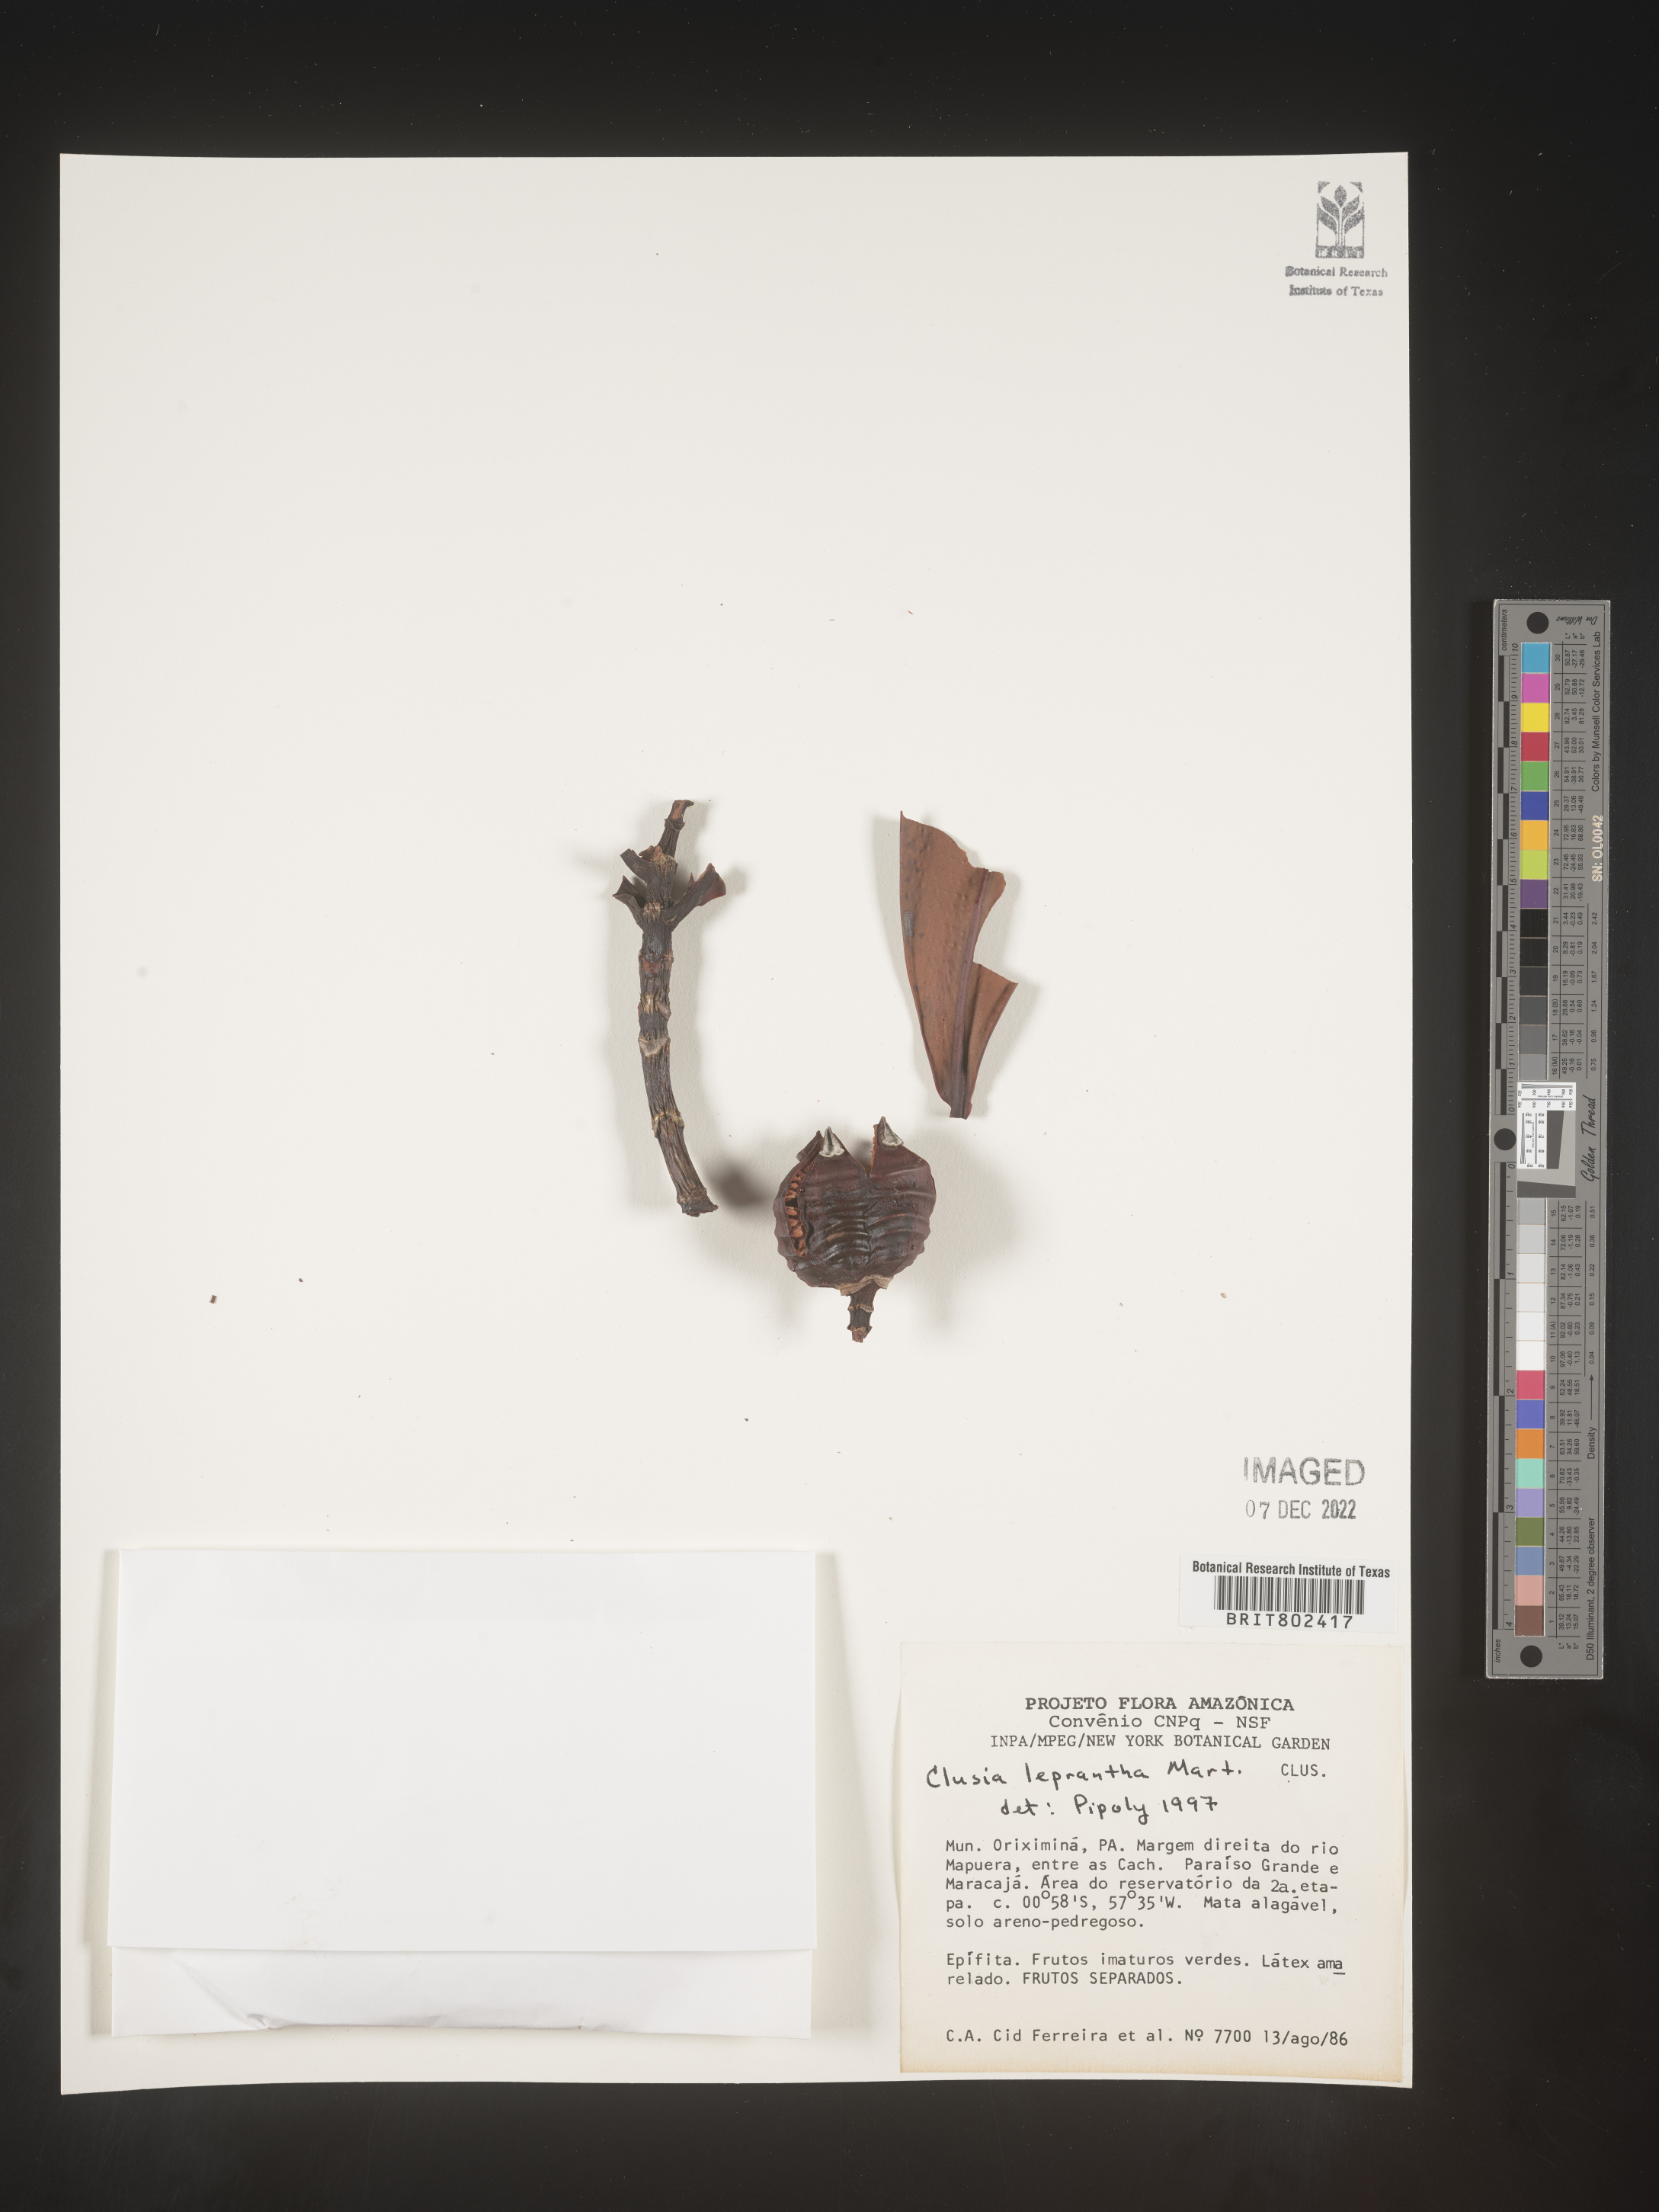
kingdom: Plantae
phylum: Tracheophyta
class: Magnoliopsida
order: Malpighiales
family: Clusiaceae
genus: Clusia
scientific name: Clusia
